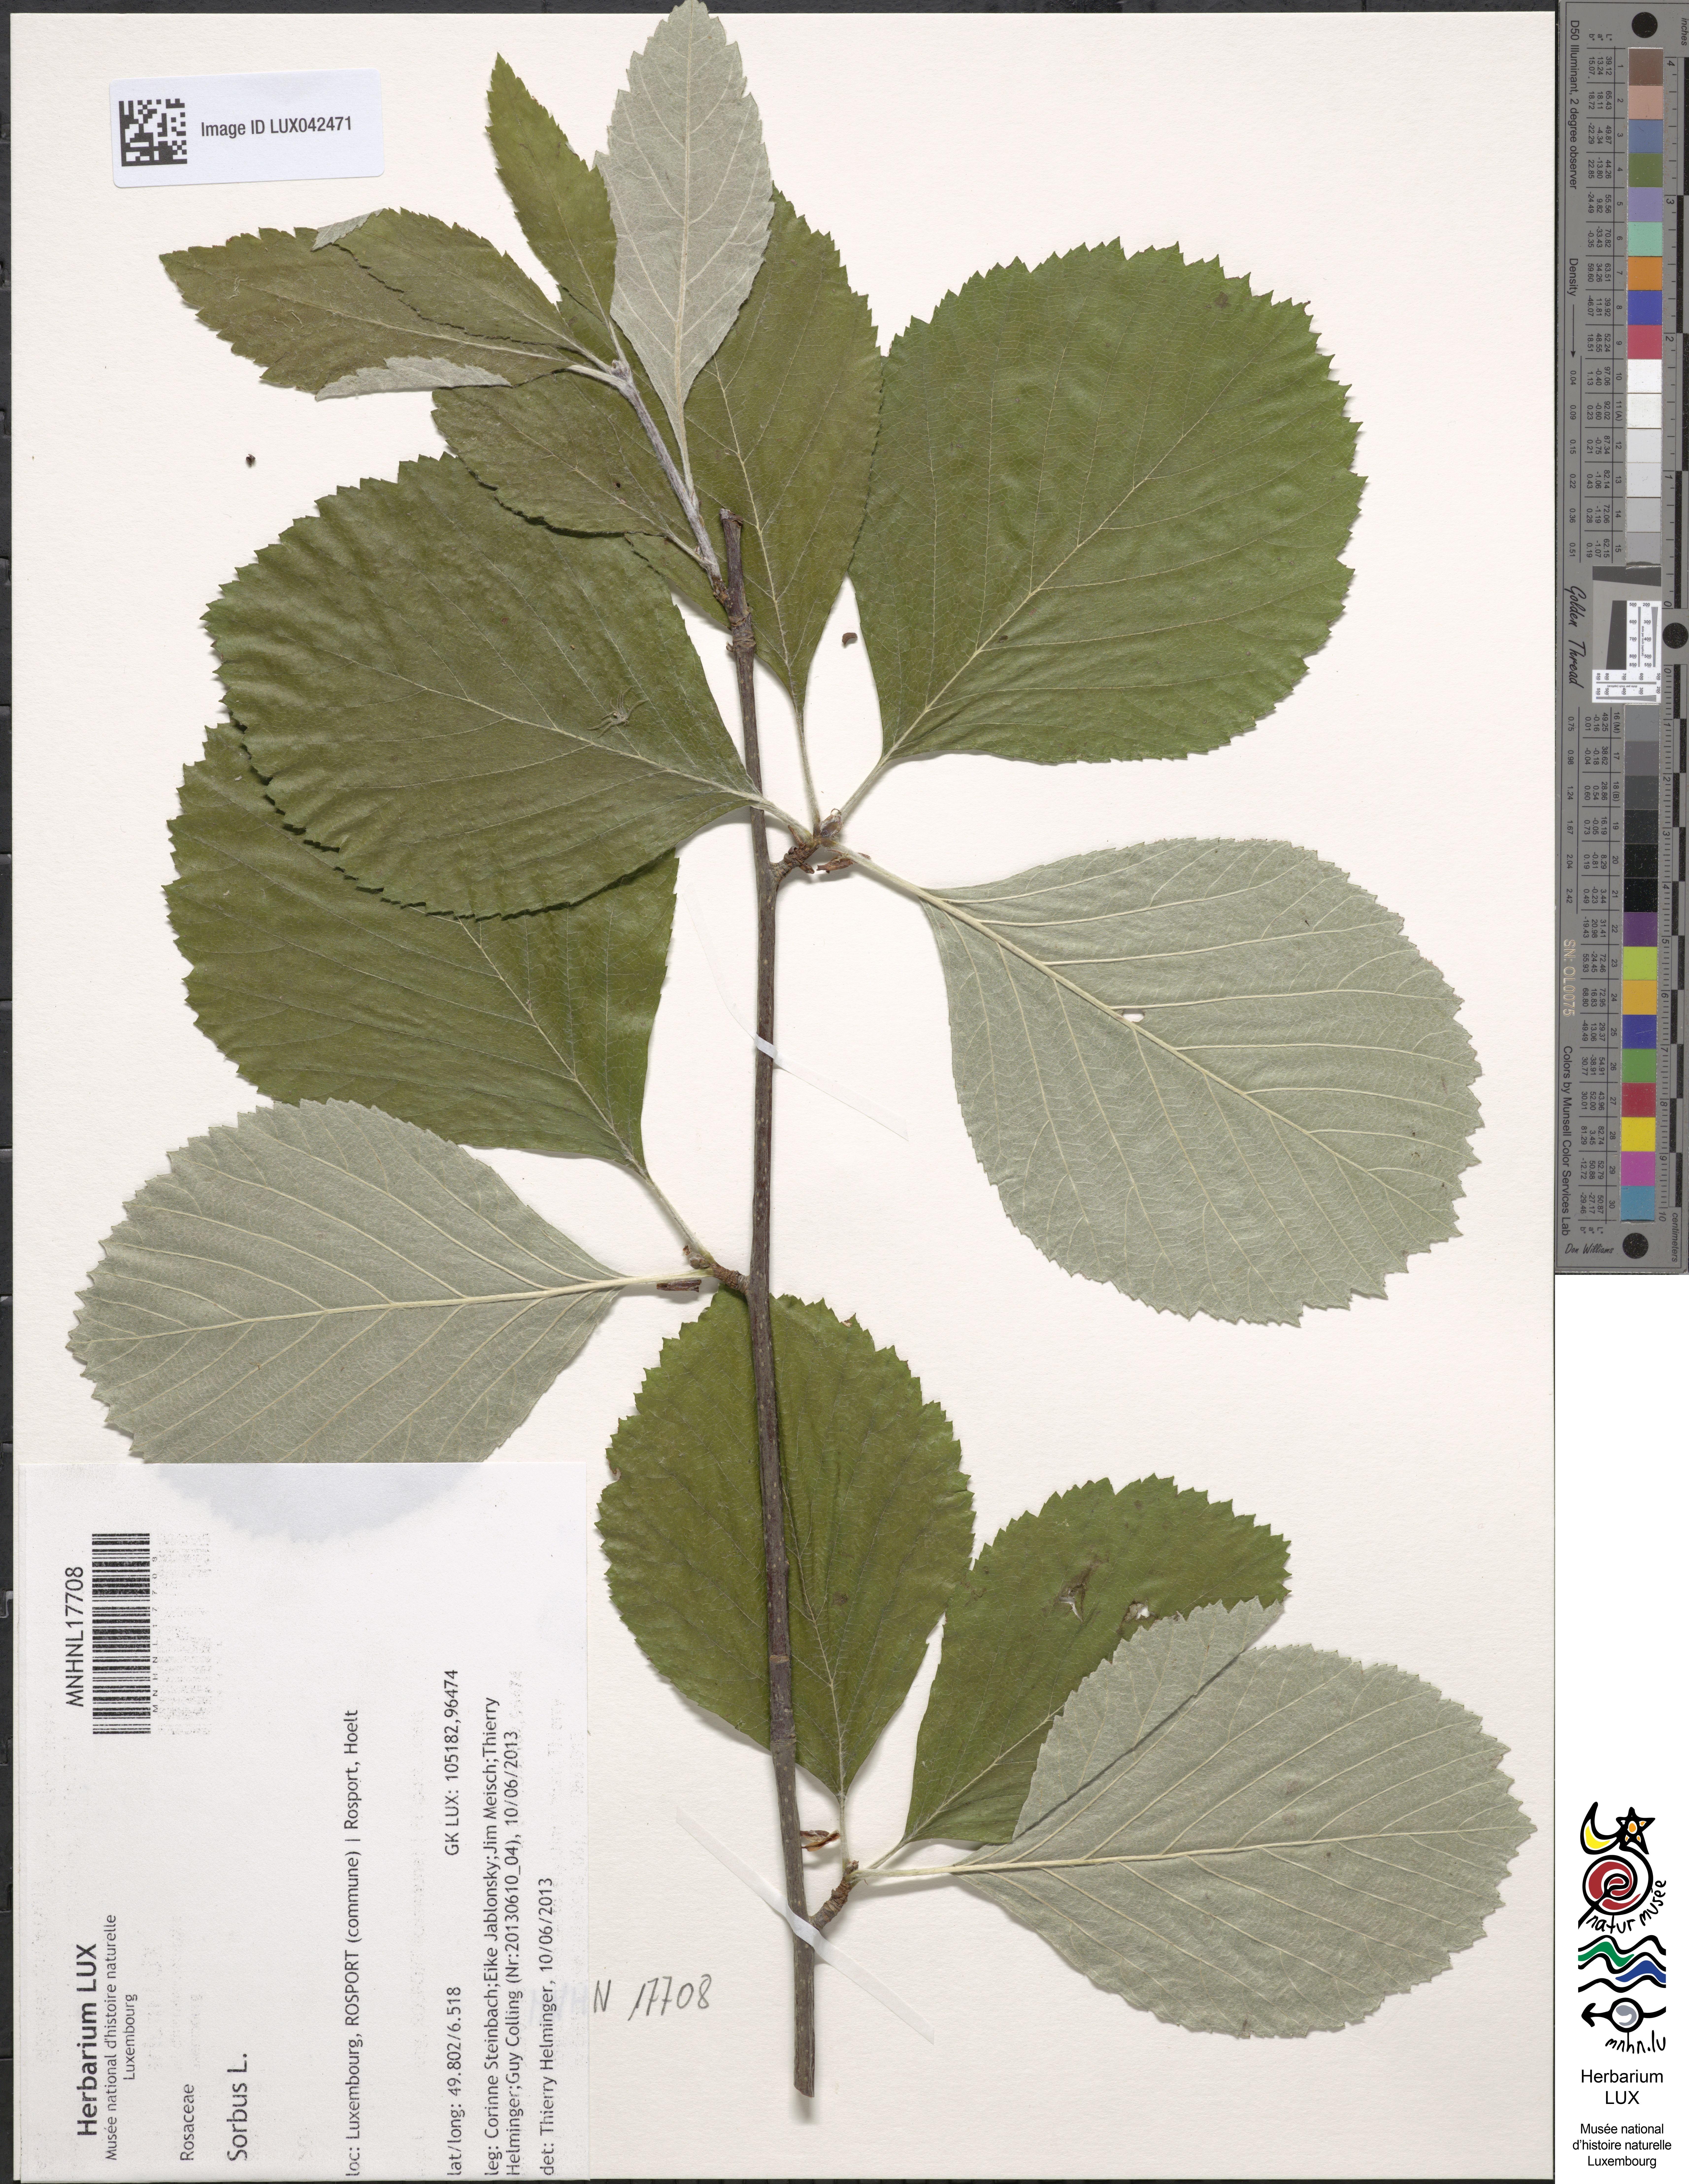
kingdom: Plantae
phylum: Tracheophyta
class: Magnoliopsida
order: Rosales
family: Rosaceae
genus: Sorbus
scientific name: Sorbus
